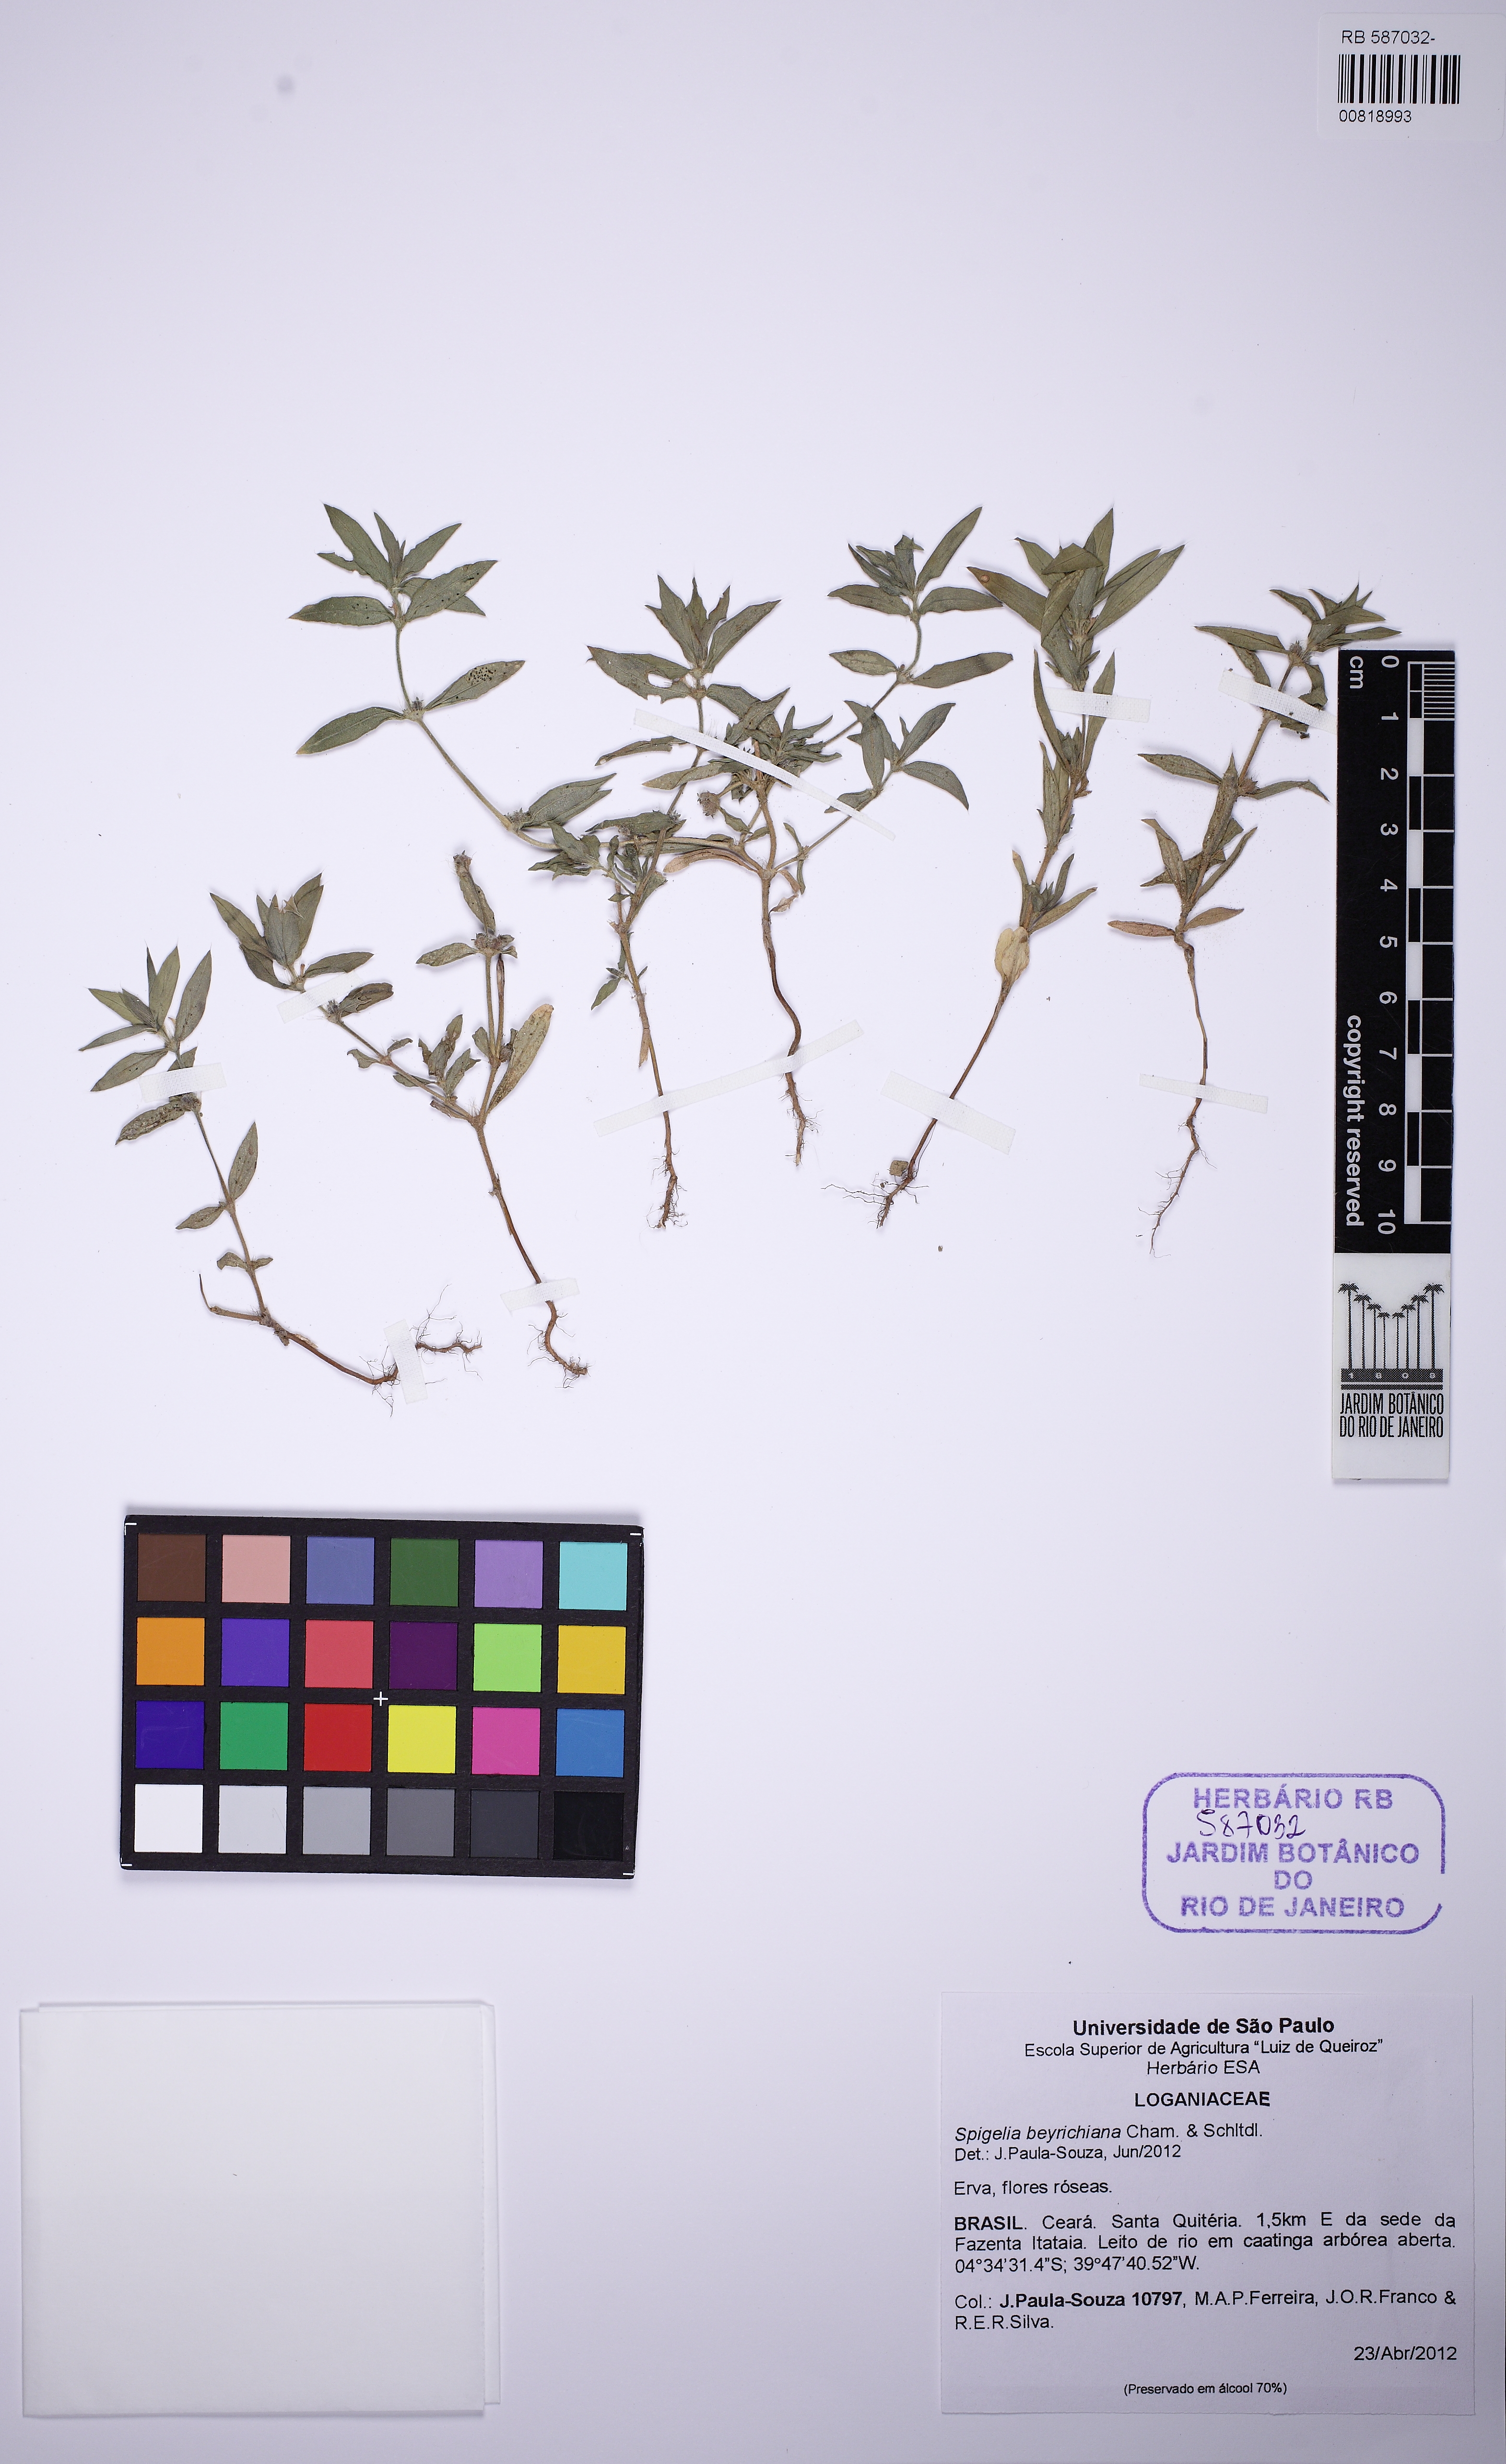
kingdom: Plantae
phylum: Tracheophyta
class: Magnoliopsida
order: Gentianales
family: Rubiaceae
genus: Hexasepalum
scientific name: Hexasepalum apiculatum
